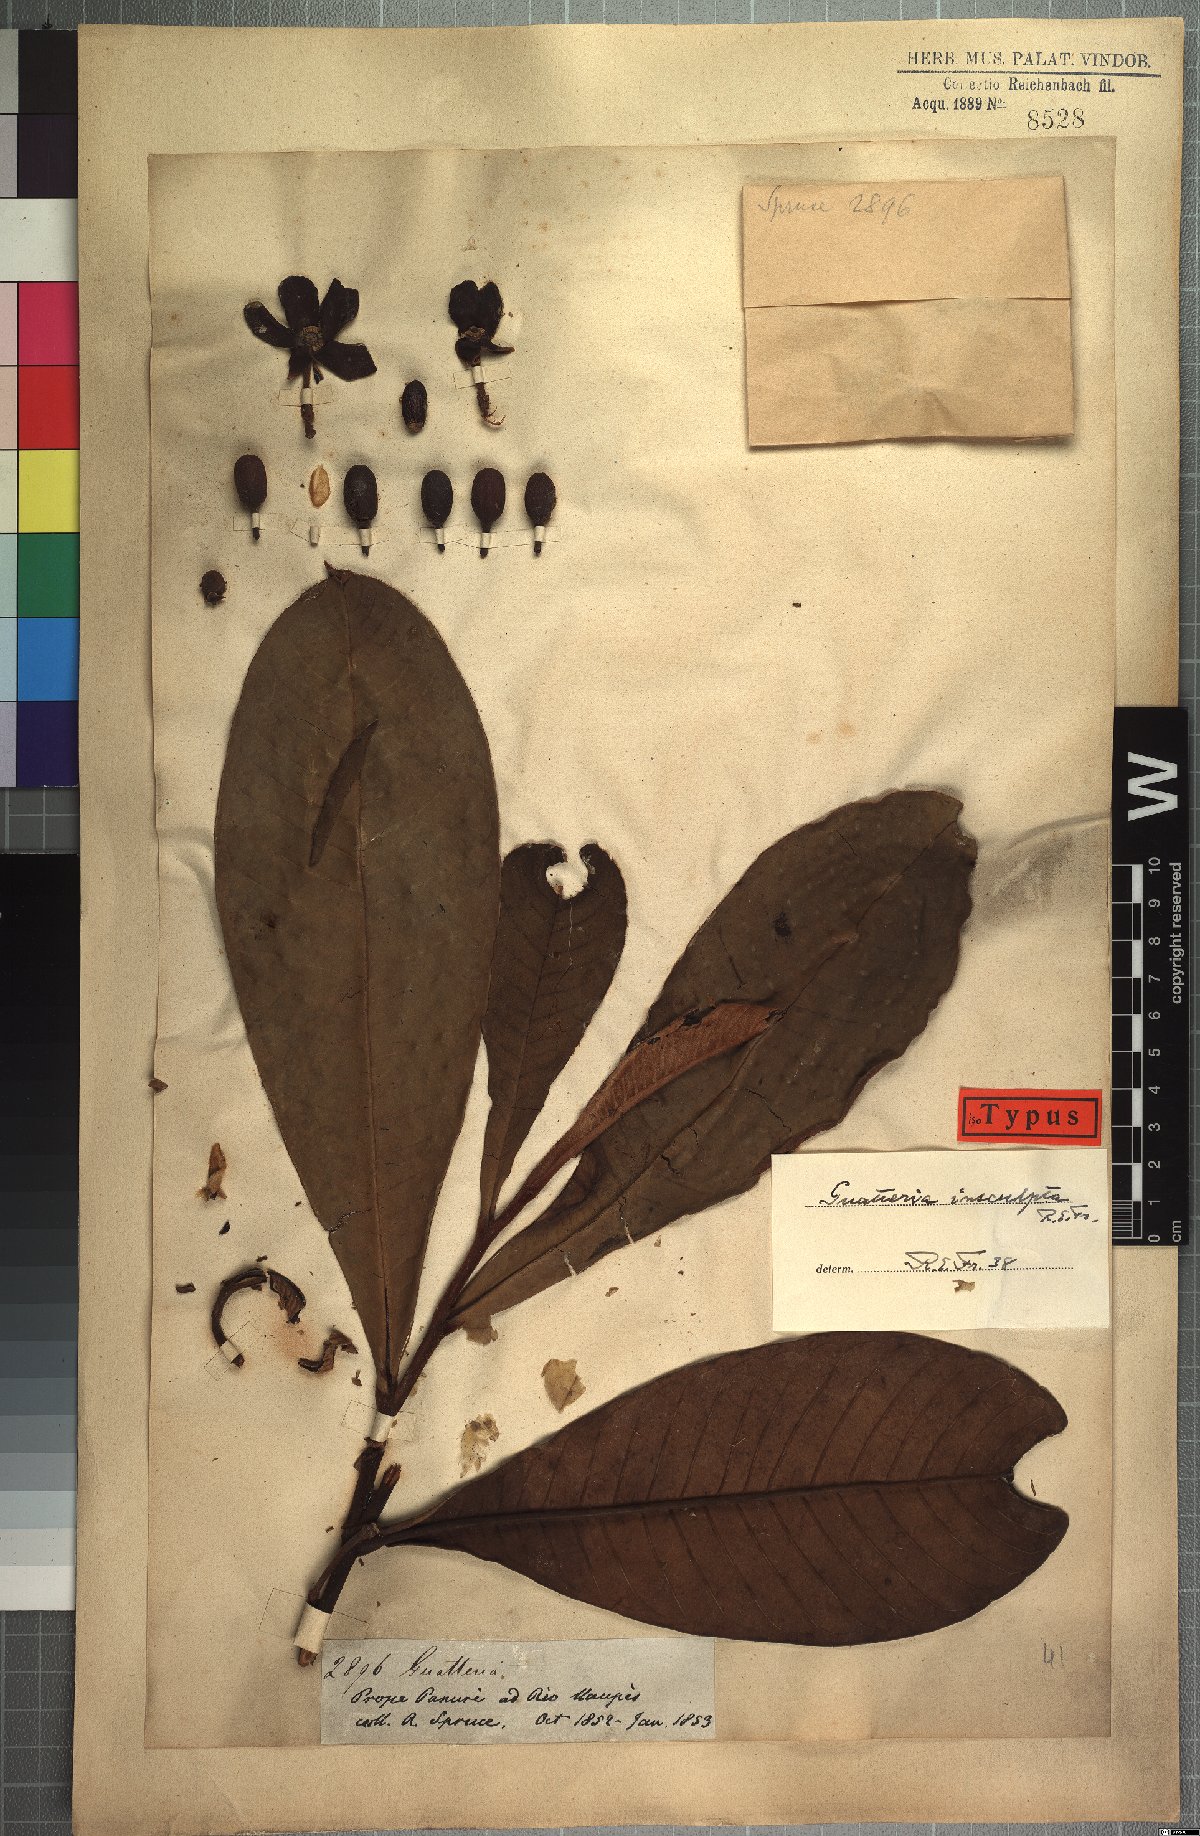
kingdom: Plantae
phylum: Tracheophyta
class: Magnoliopsida
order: Magnoliales
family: Annonaceae
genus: Guatteria
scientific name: Guatteria insculpta
